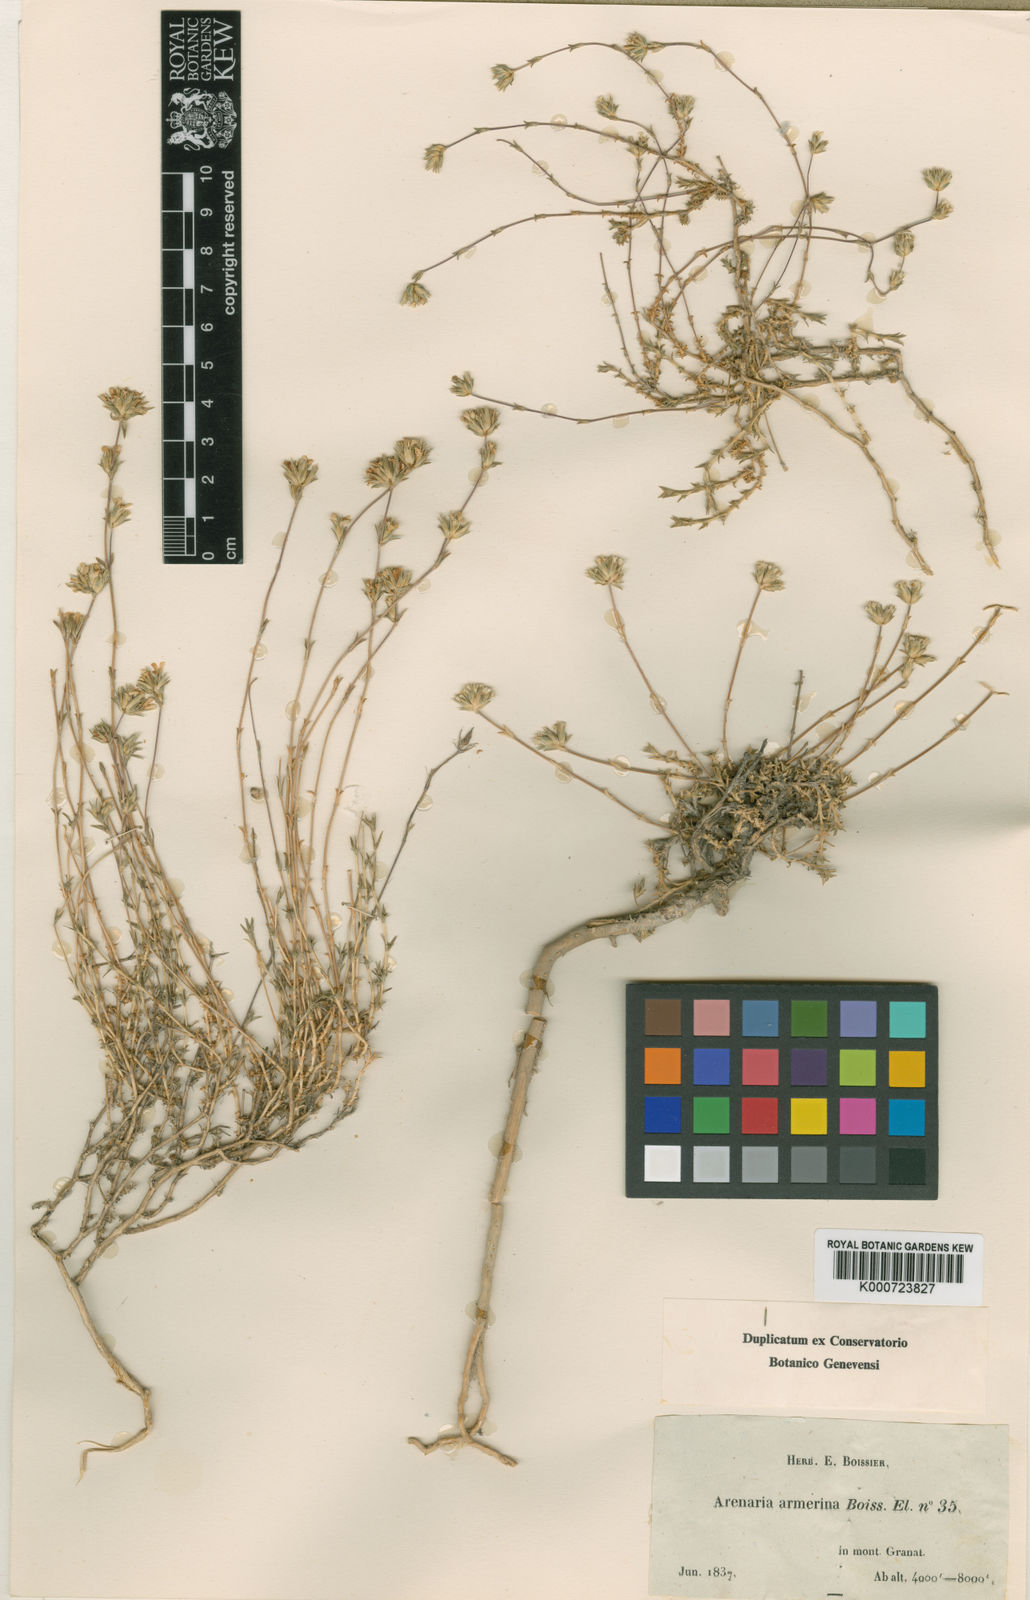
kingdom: Plantae
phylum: Tracheophyta
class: Magnoliopsida
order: Caryophyllales
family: Caryophyllaceae
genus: Arenaria
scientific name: Arenaria armerina
